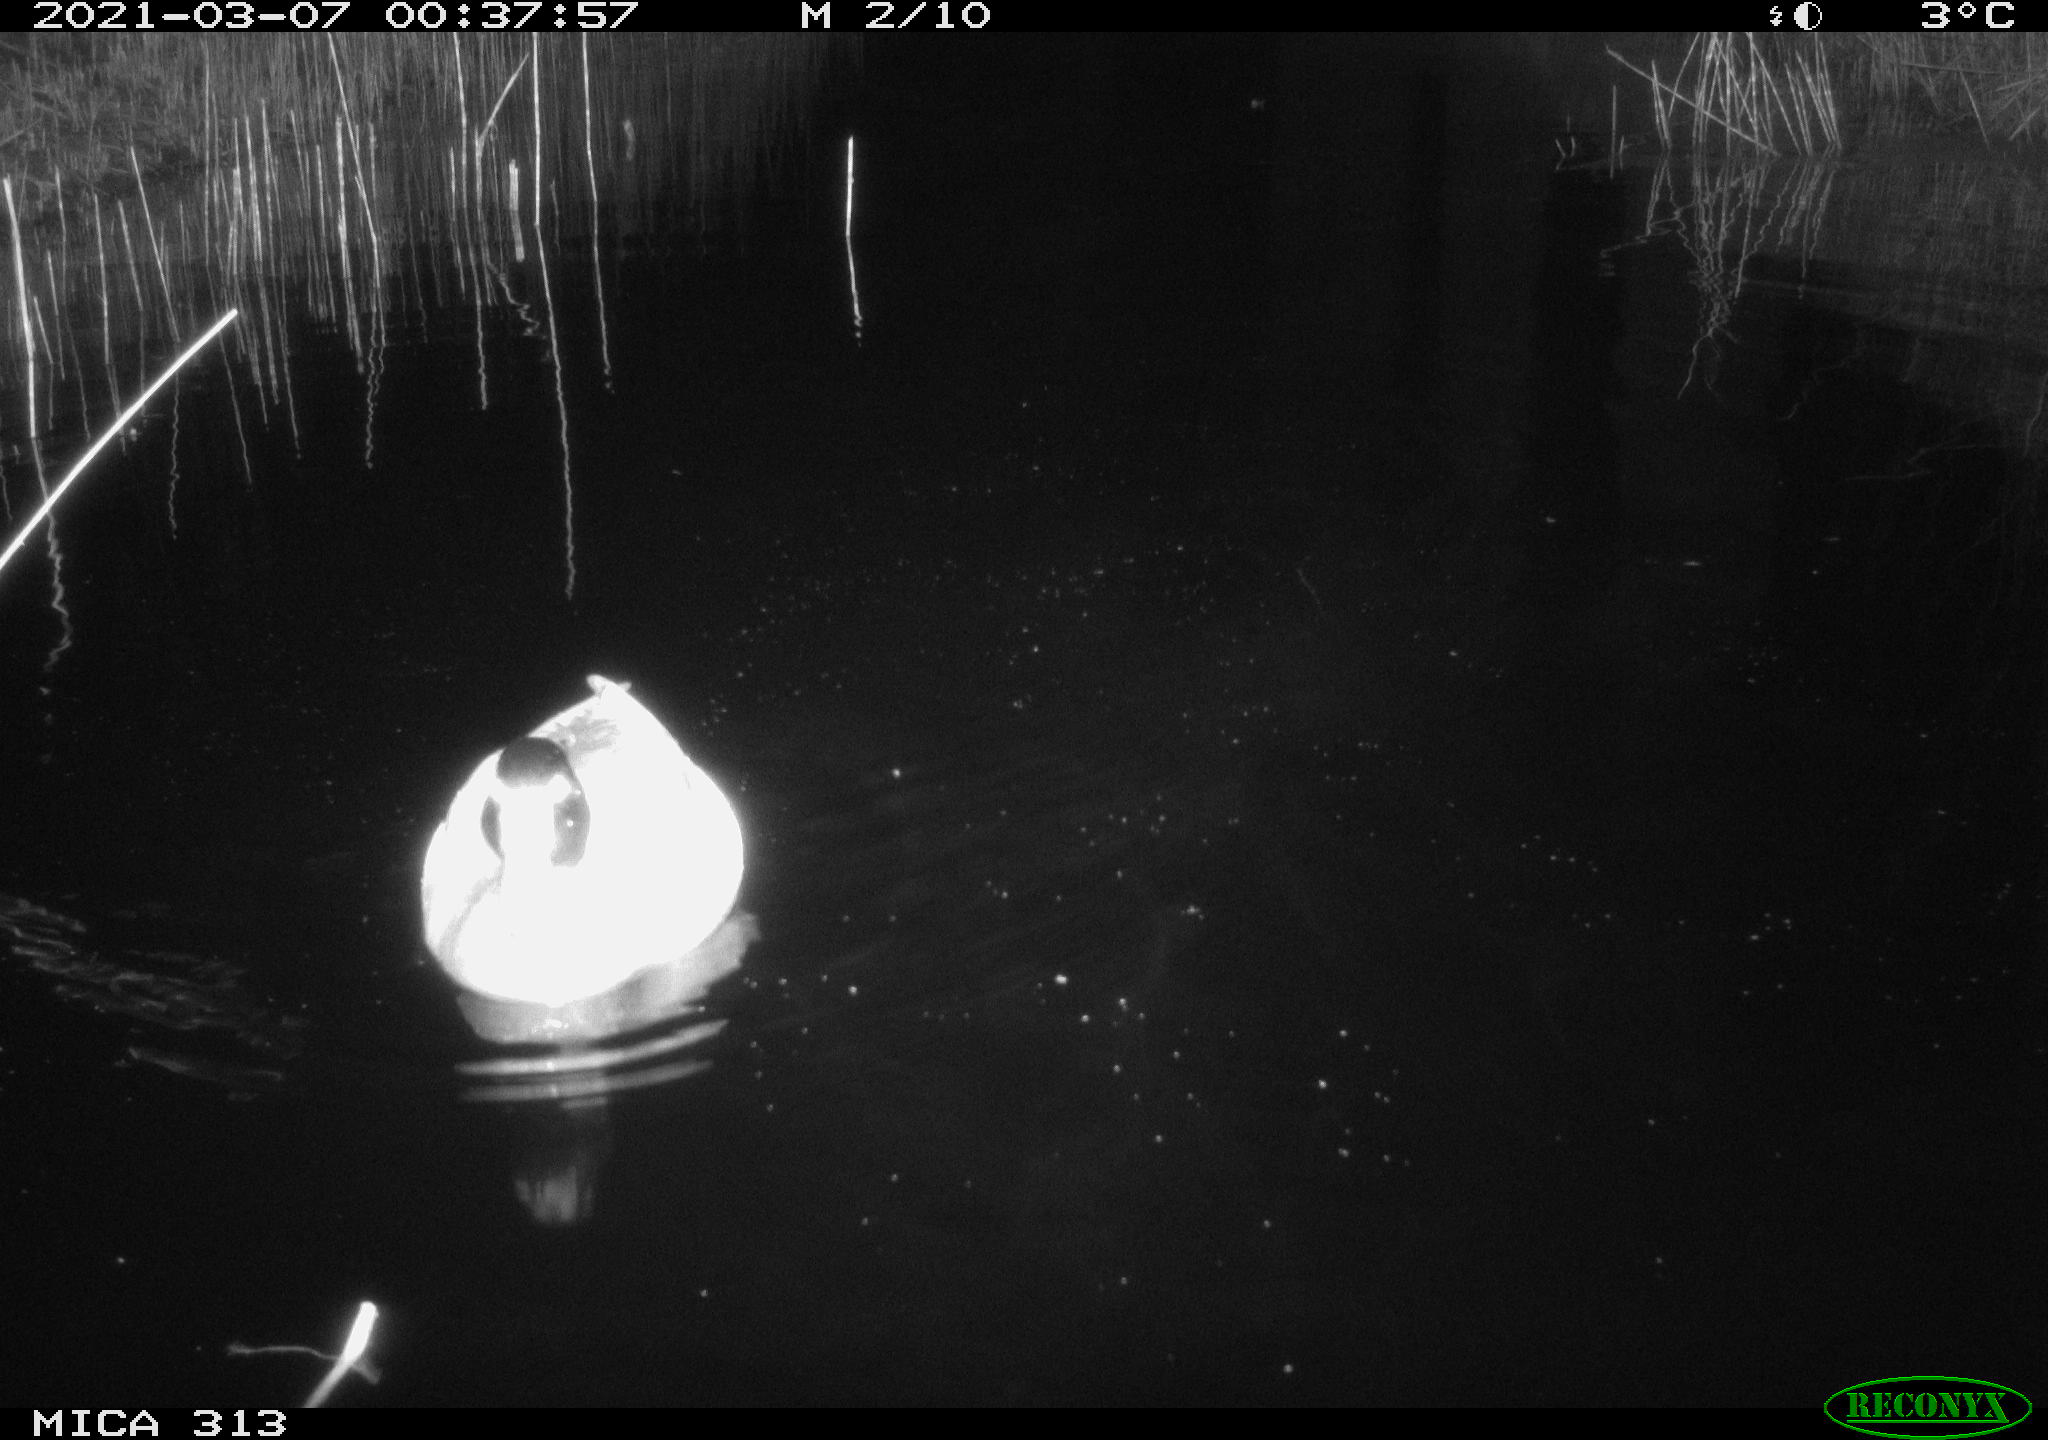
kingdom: Animalia
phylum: Chordata
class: Aves
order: Anseriformes
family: Anatidae
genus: Anas
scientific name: Anas platyrhynchos
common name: Mallard
